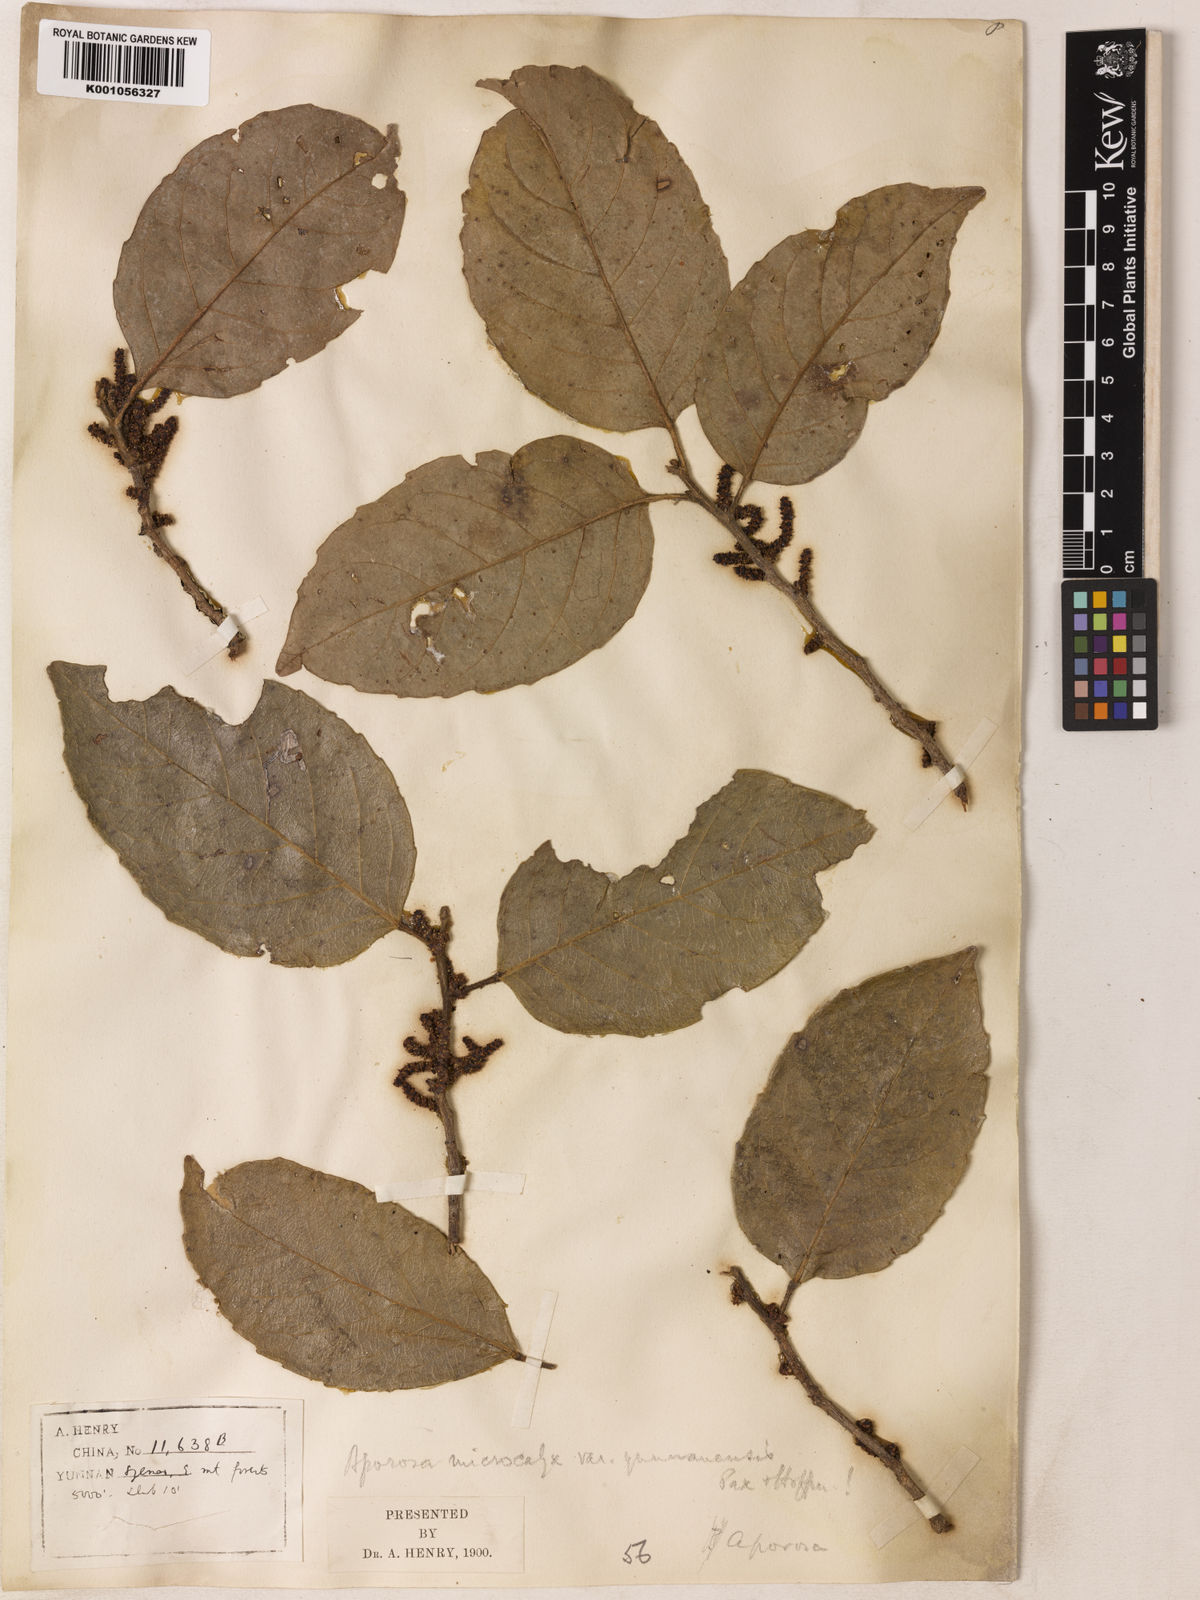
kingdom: Plantae
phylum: Tracheophyta
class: Magnoliopsida
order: Malpighiales
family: Phyllanthaceae
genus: Aporosa
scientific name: Aporosa octandra
